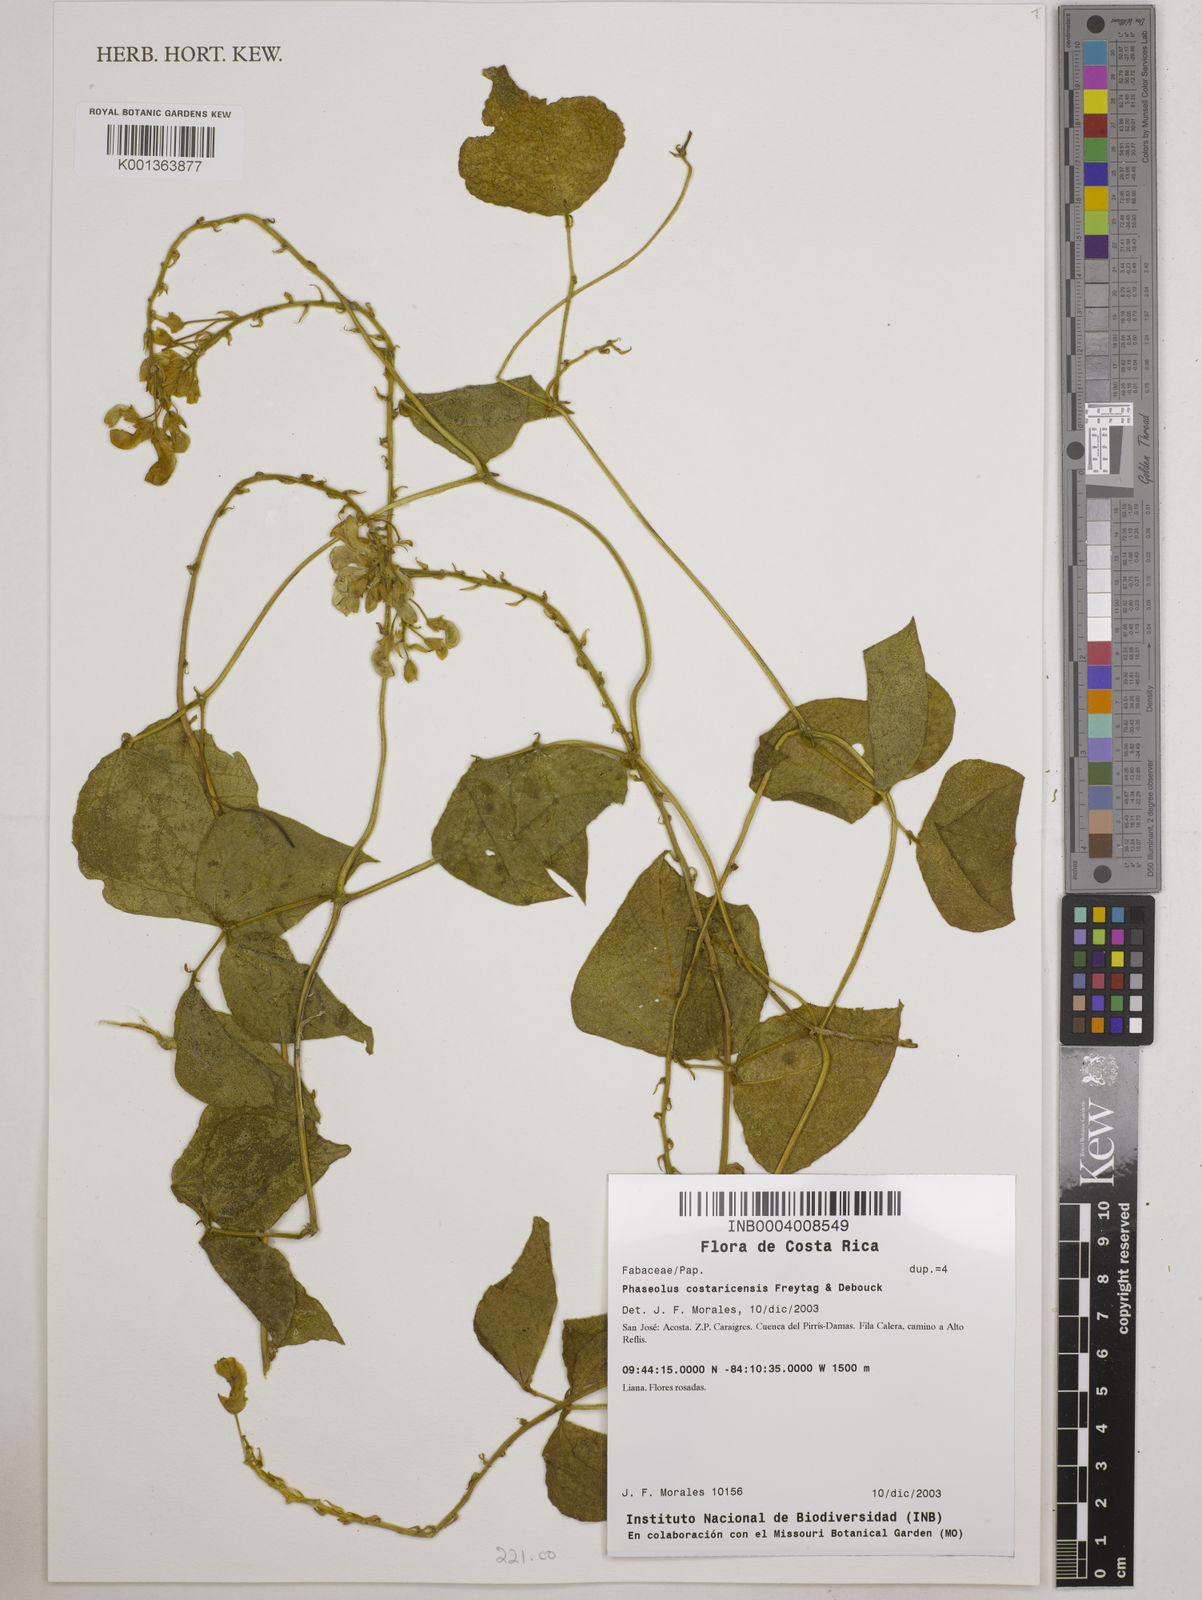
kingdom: Plantae
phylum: Tracheophyta
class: Magnoliopsida
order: Fabales
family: Fabaceae
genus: Phaseolus
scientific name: Phaseolus costaricensis
